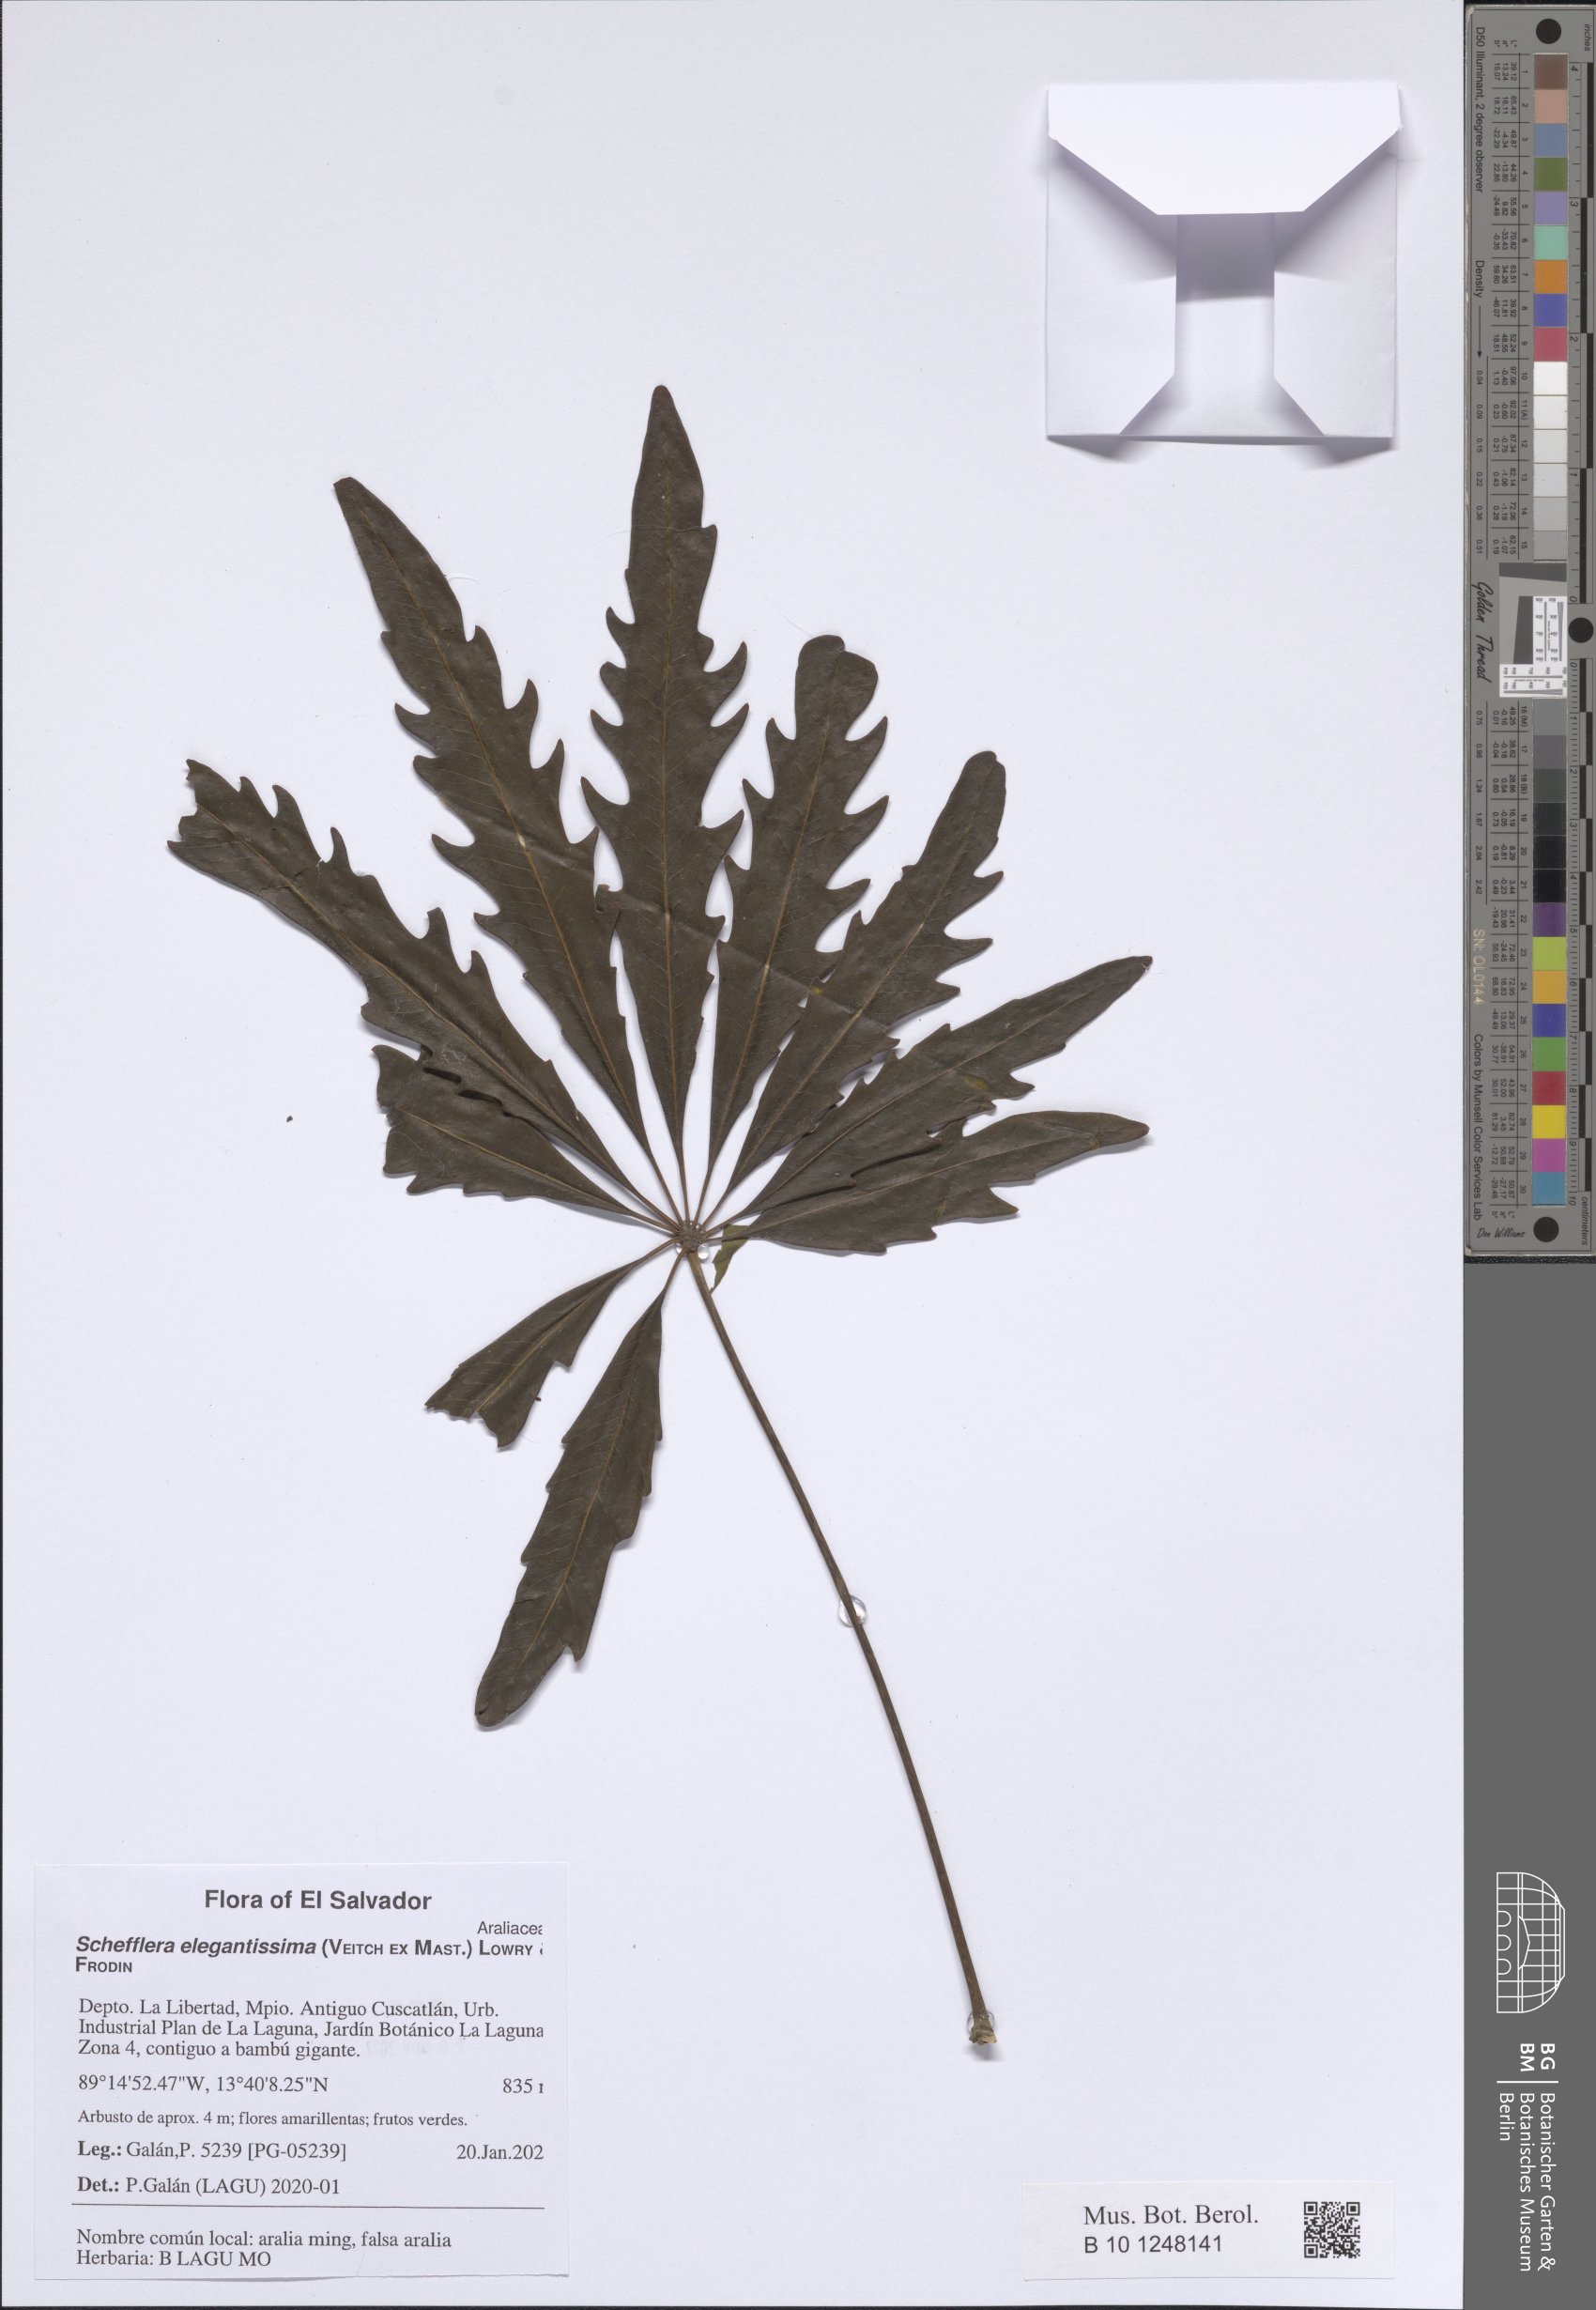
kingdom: Plantae
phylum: Tracheophyta
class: Magnoliopsida
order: Apiales
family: Araliaceae
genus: Plerandra
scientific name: Plerandra elegantissima
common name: False aralia
